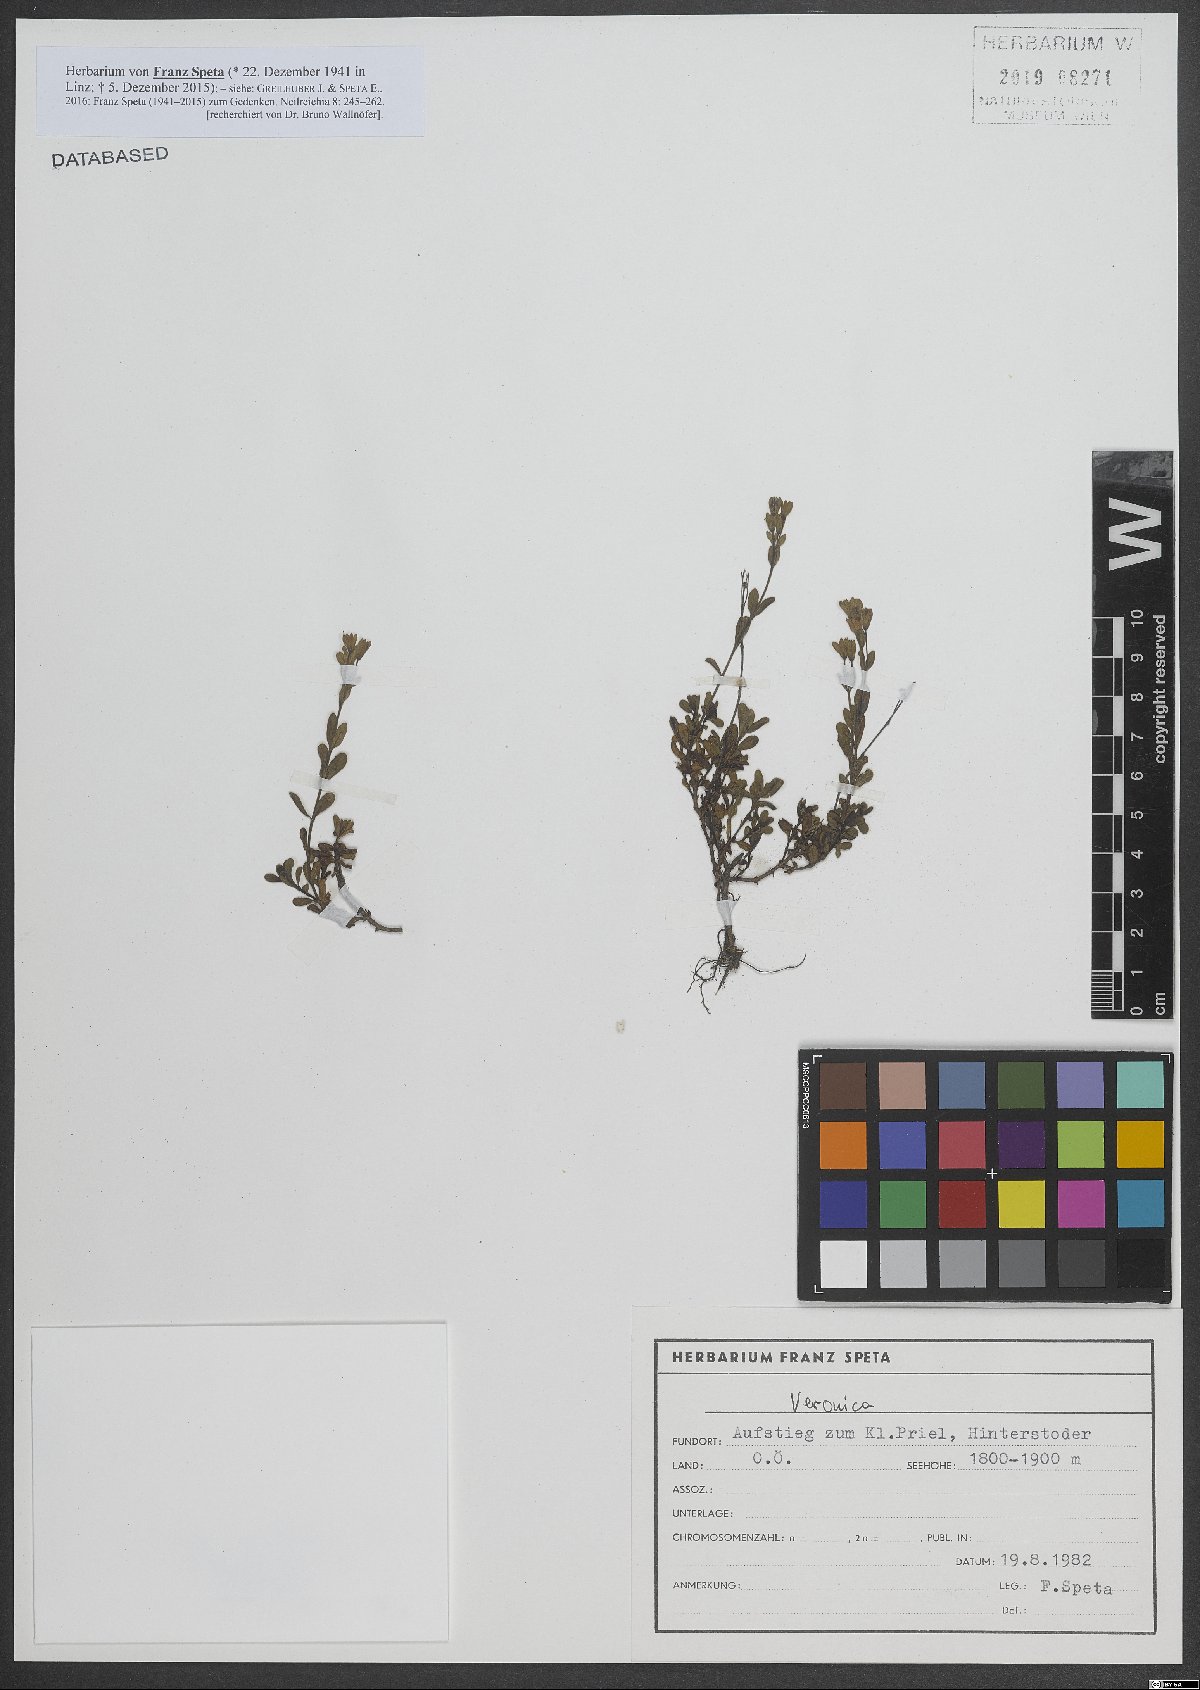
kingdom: Plantae
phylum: Tracheophyta
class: Magnoliopsida
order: Lamiales
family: Plantaginaceae
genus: Veronica
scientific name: Veronica
